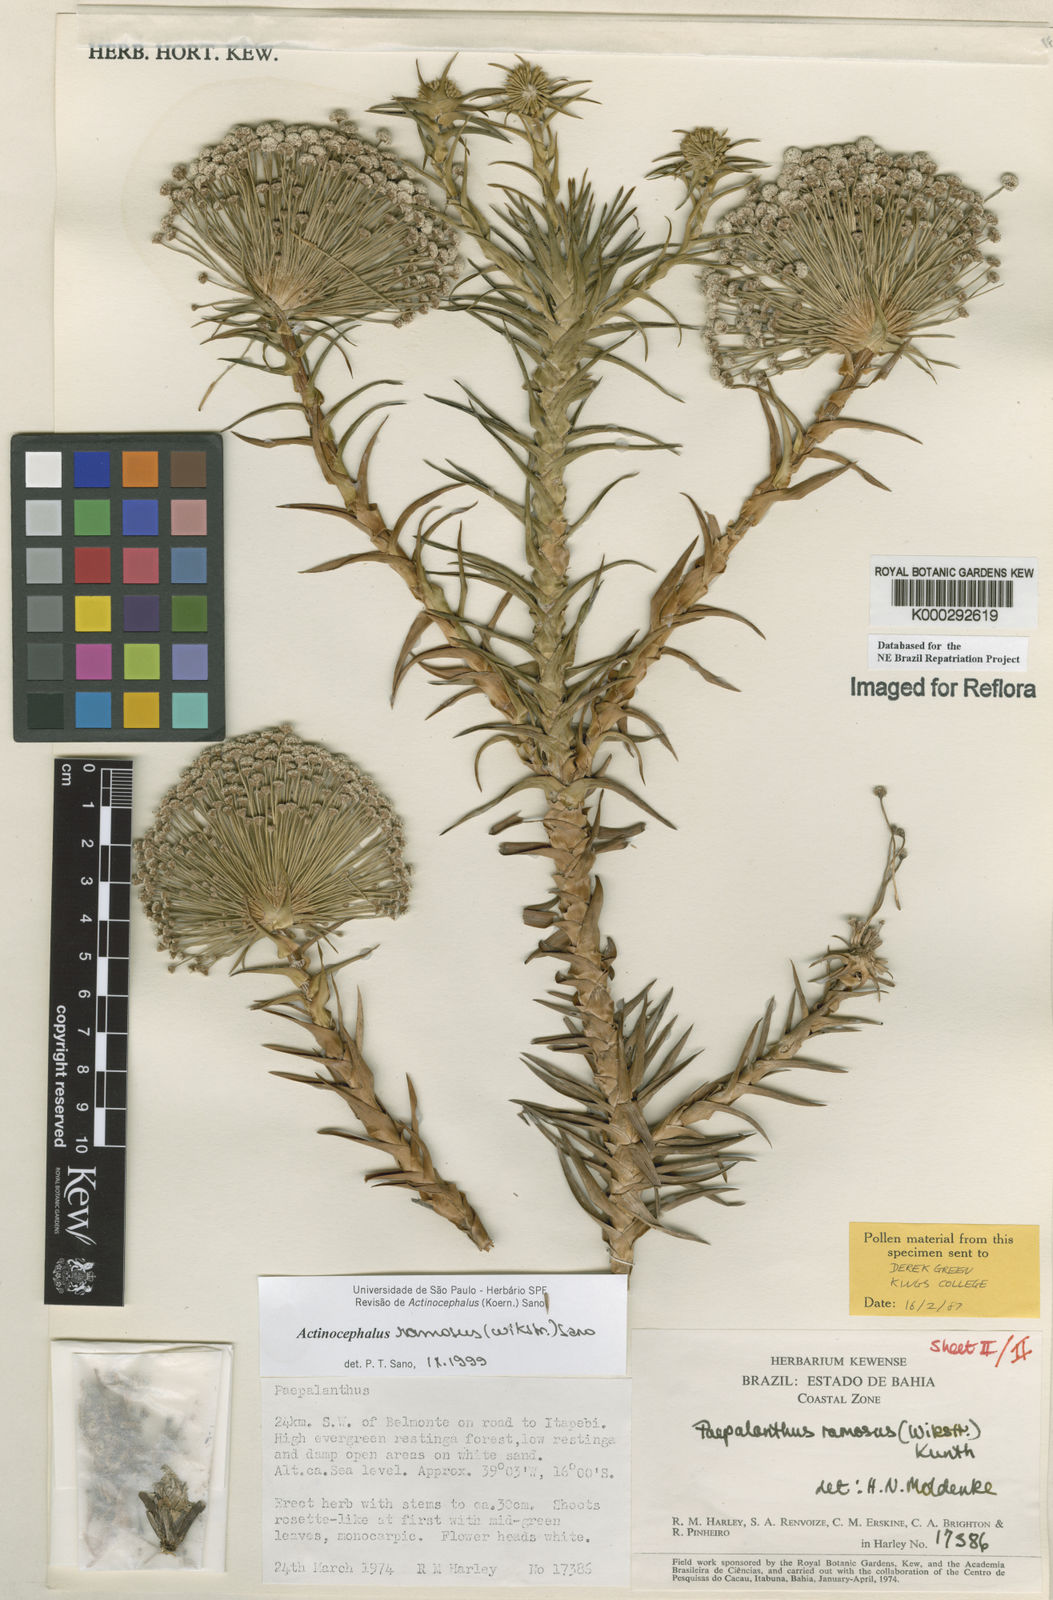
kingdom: Plantae
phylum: Tracheophyta
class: Liliopsida
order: Poales
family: Eriocaulaceae
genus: Paepalanthus
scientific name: Paepalanthus ramosus
